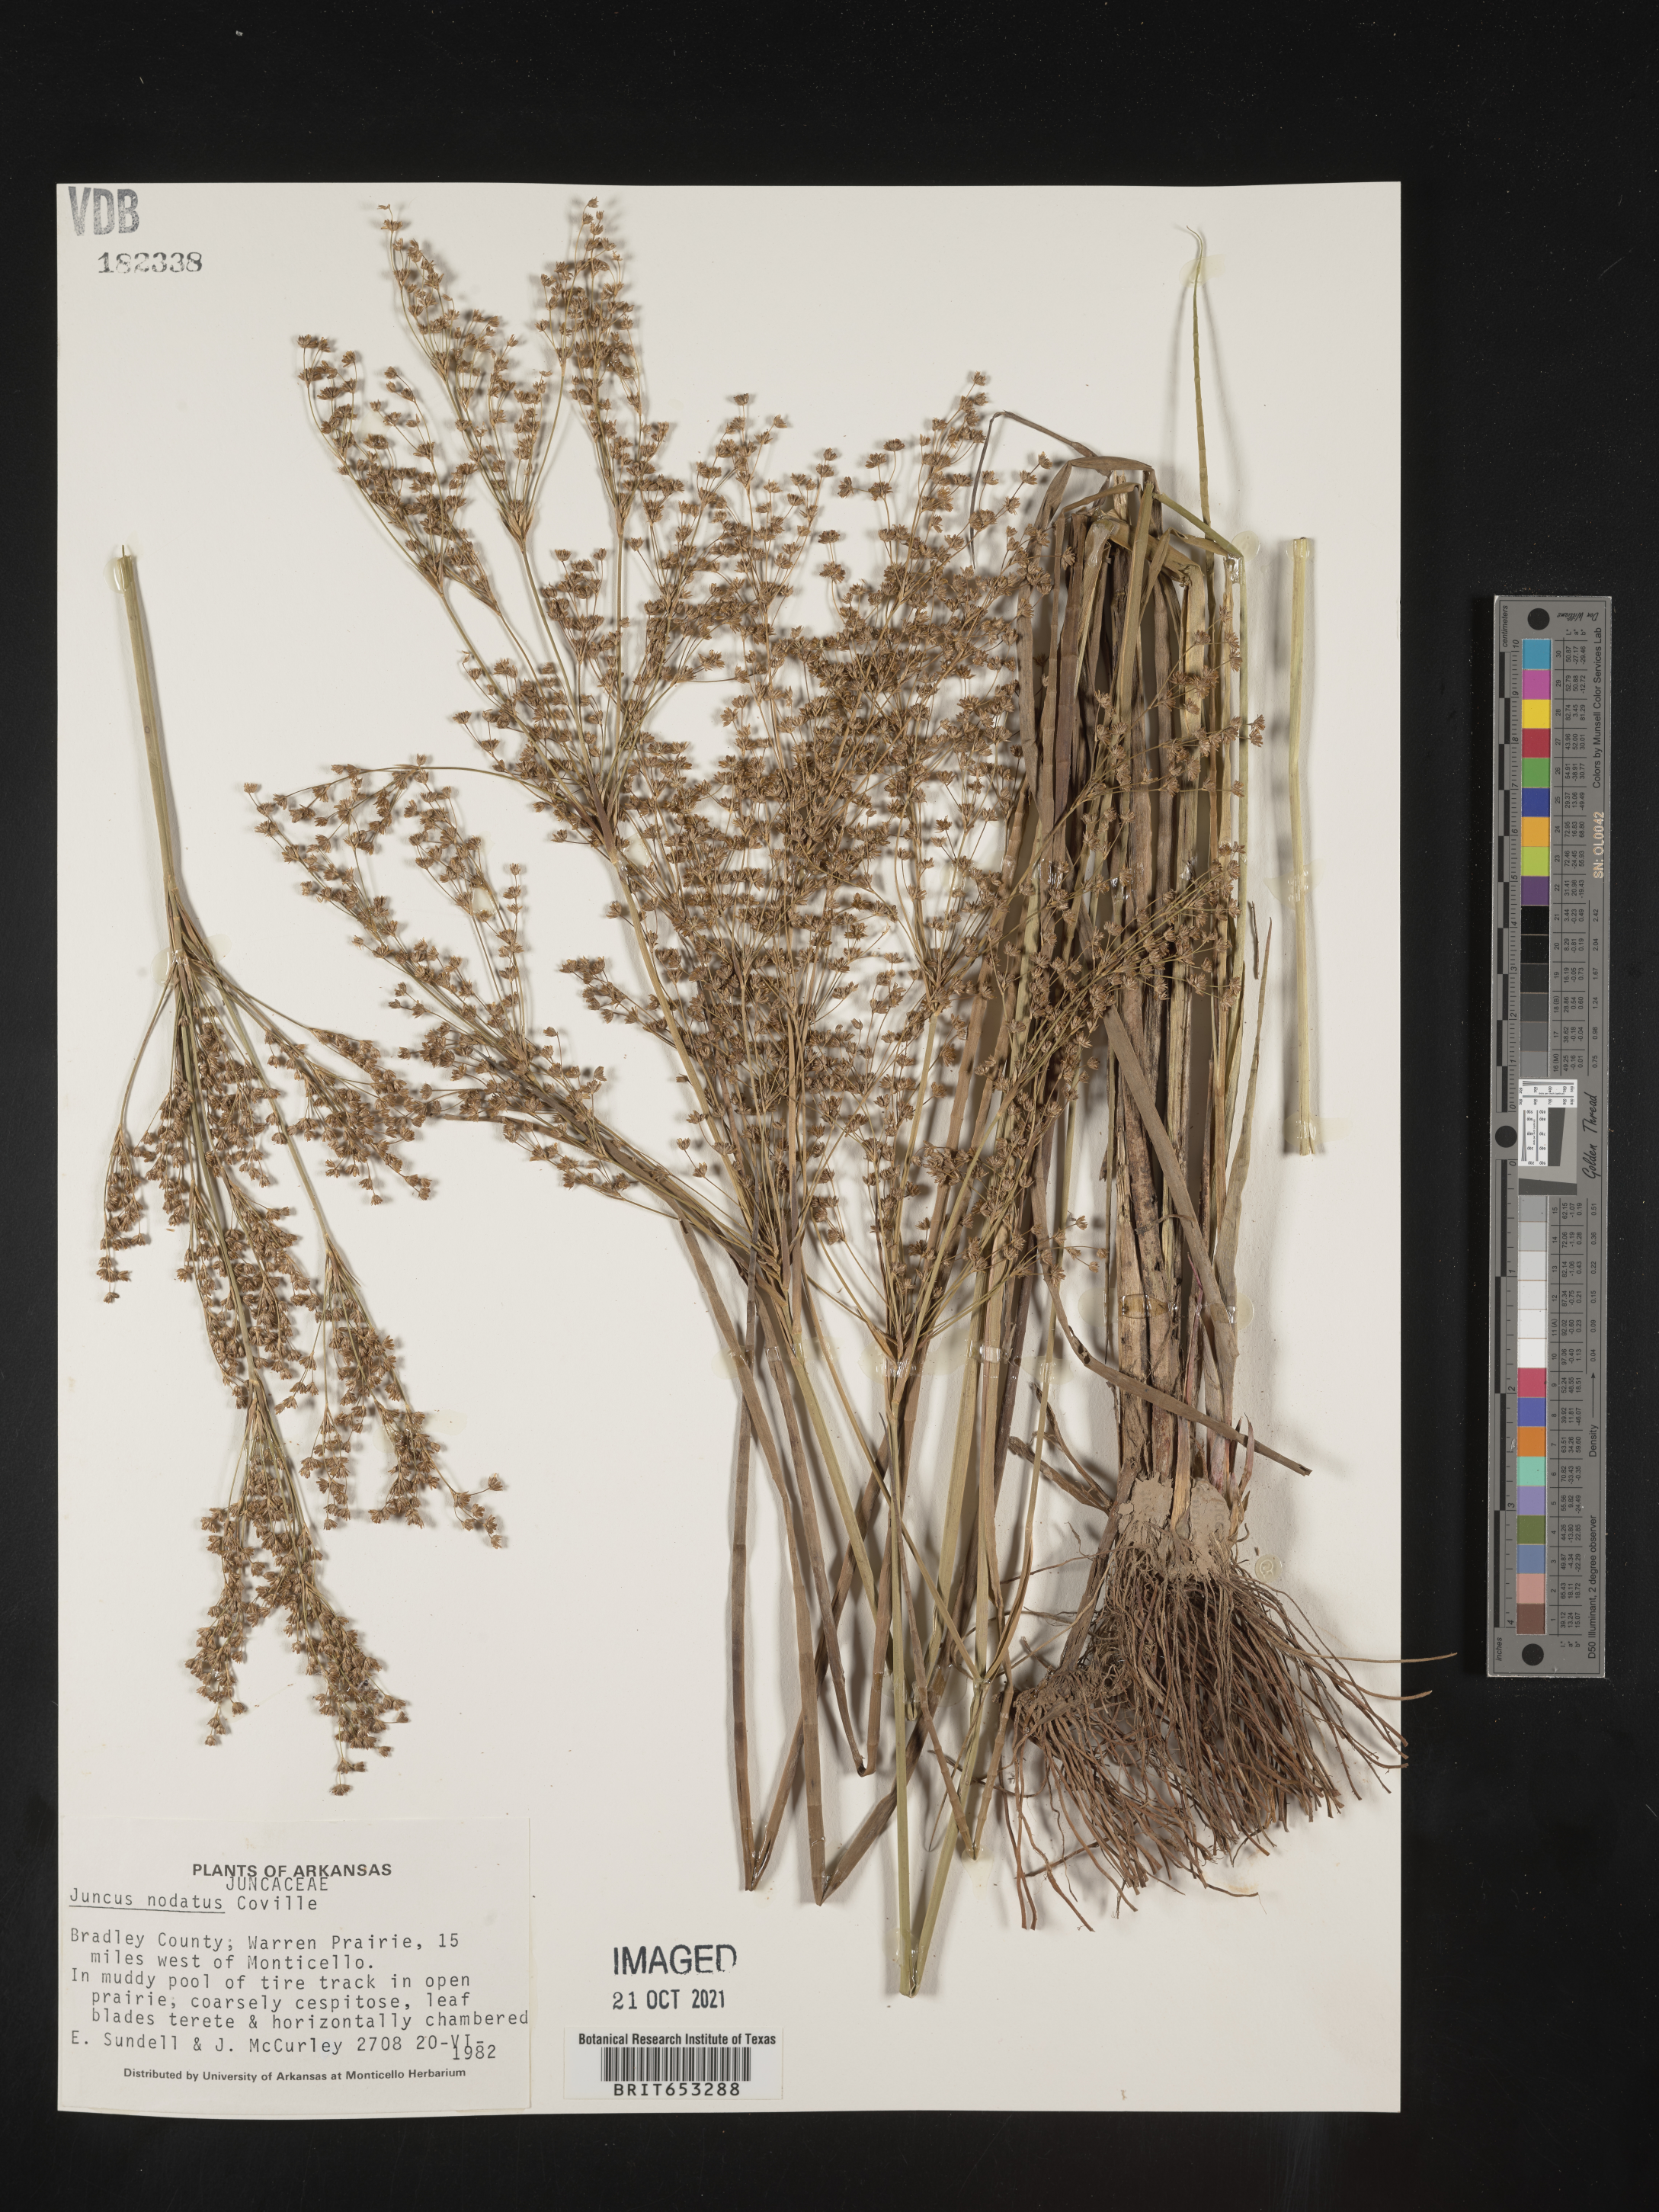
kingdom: Plantae
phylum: Tracheophyta
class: Liliopsida
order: Poales
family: Juncaceae
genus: Juncus
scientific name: Juncus nodatus
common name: Stout rush
